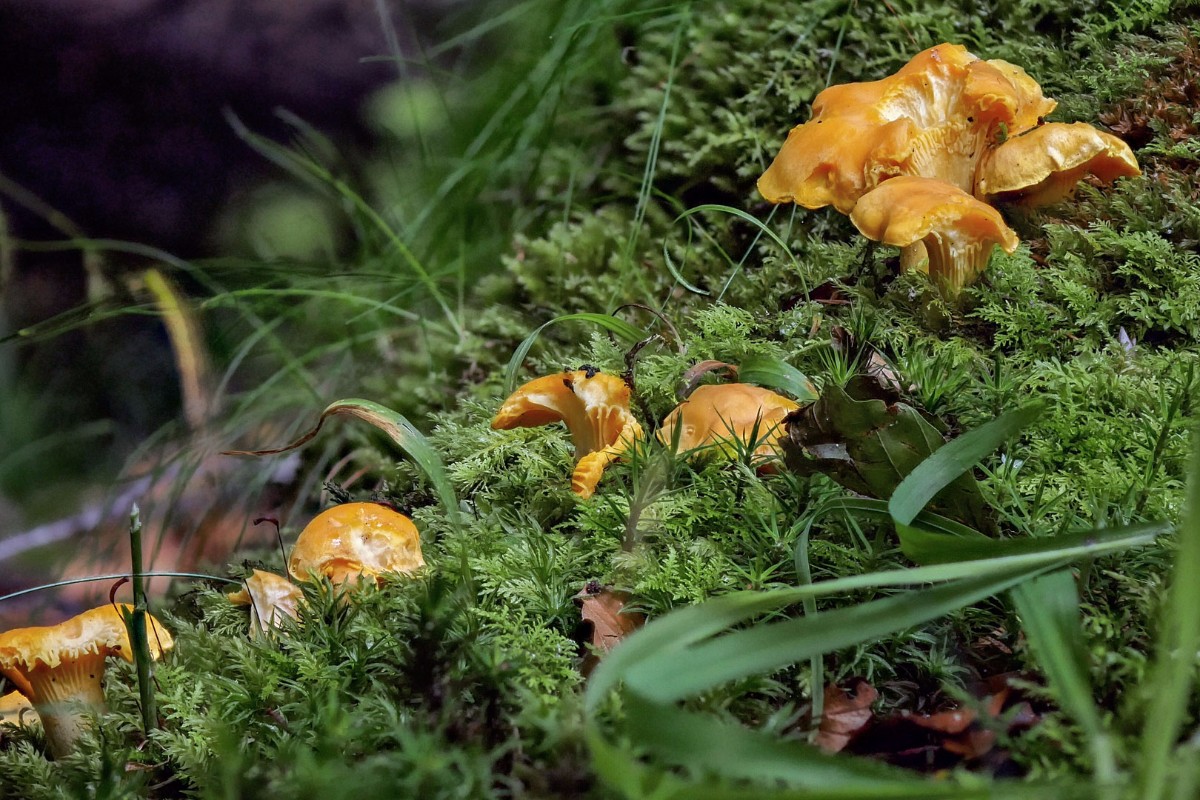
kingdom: Fungi
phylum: Basidiomycota
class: Agaricomycetes
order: Cantharellales
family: Hydnaceae
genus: Cantharellus
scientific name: Cantharellus pallens
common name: bleg kantarel
